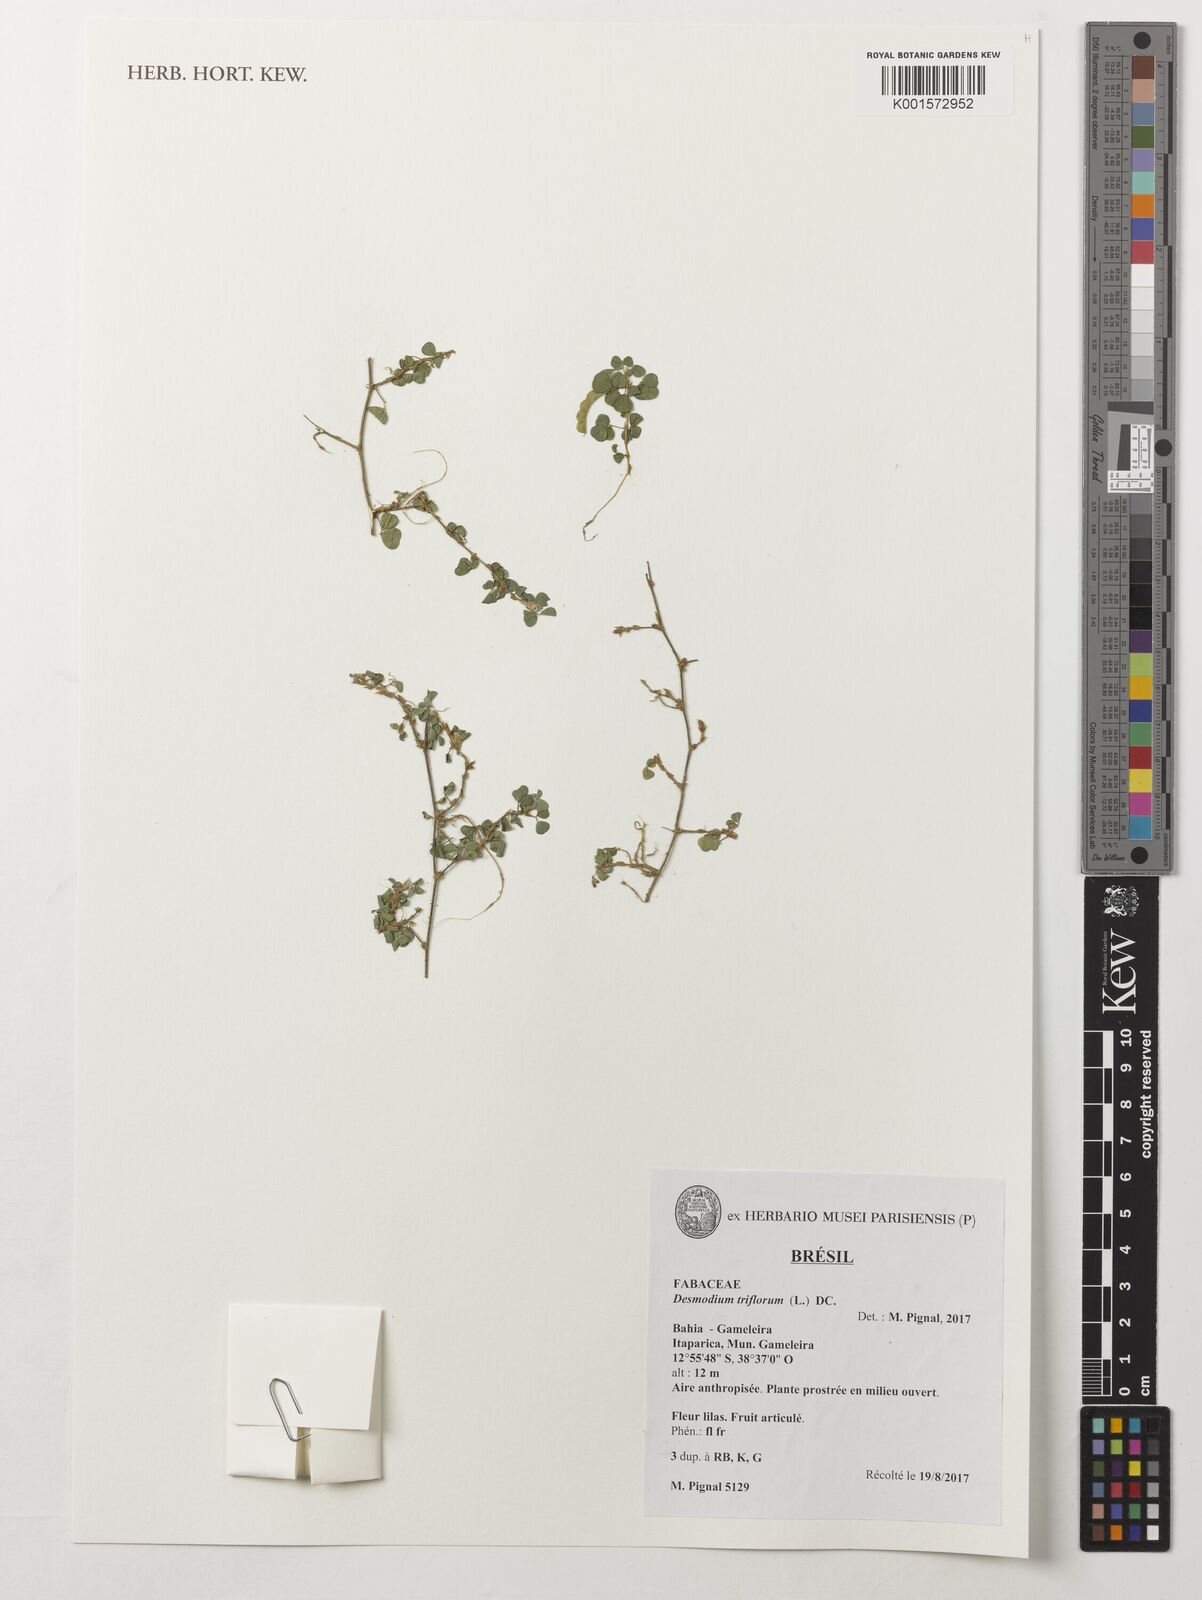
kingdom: Plantae
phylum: Tracheophyta
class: Magnoliopsida
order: Fabales
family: Fabaceae
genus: Grona
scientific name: Grona triflora
